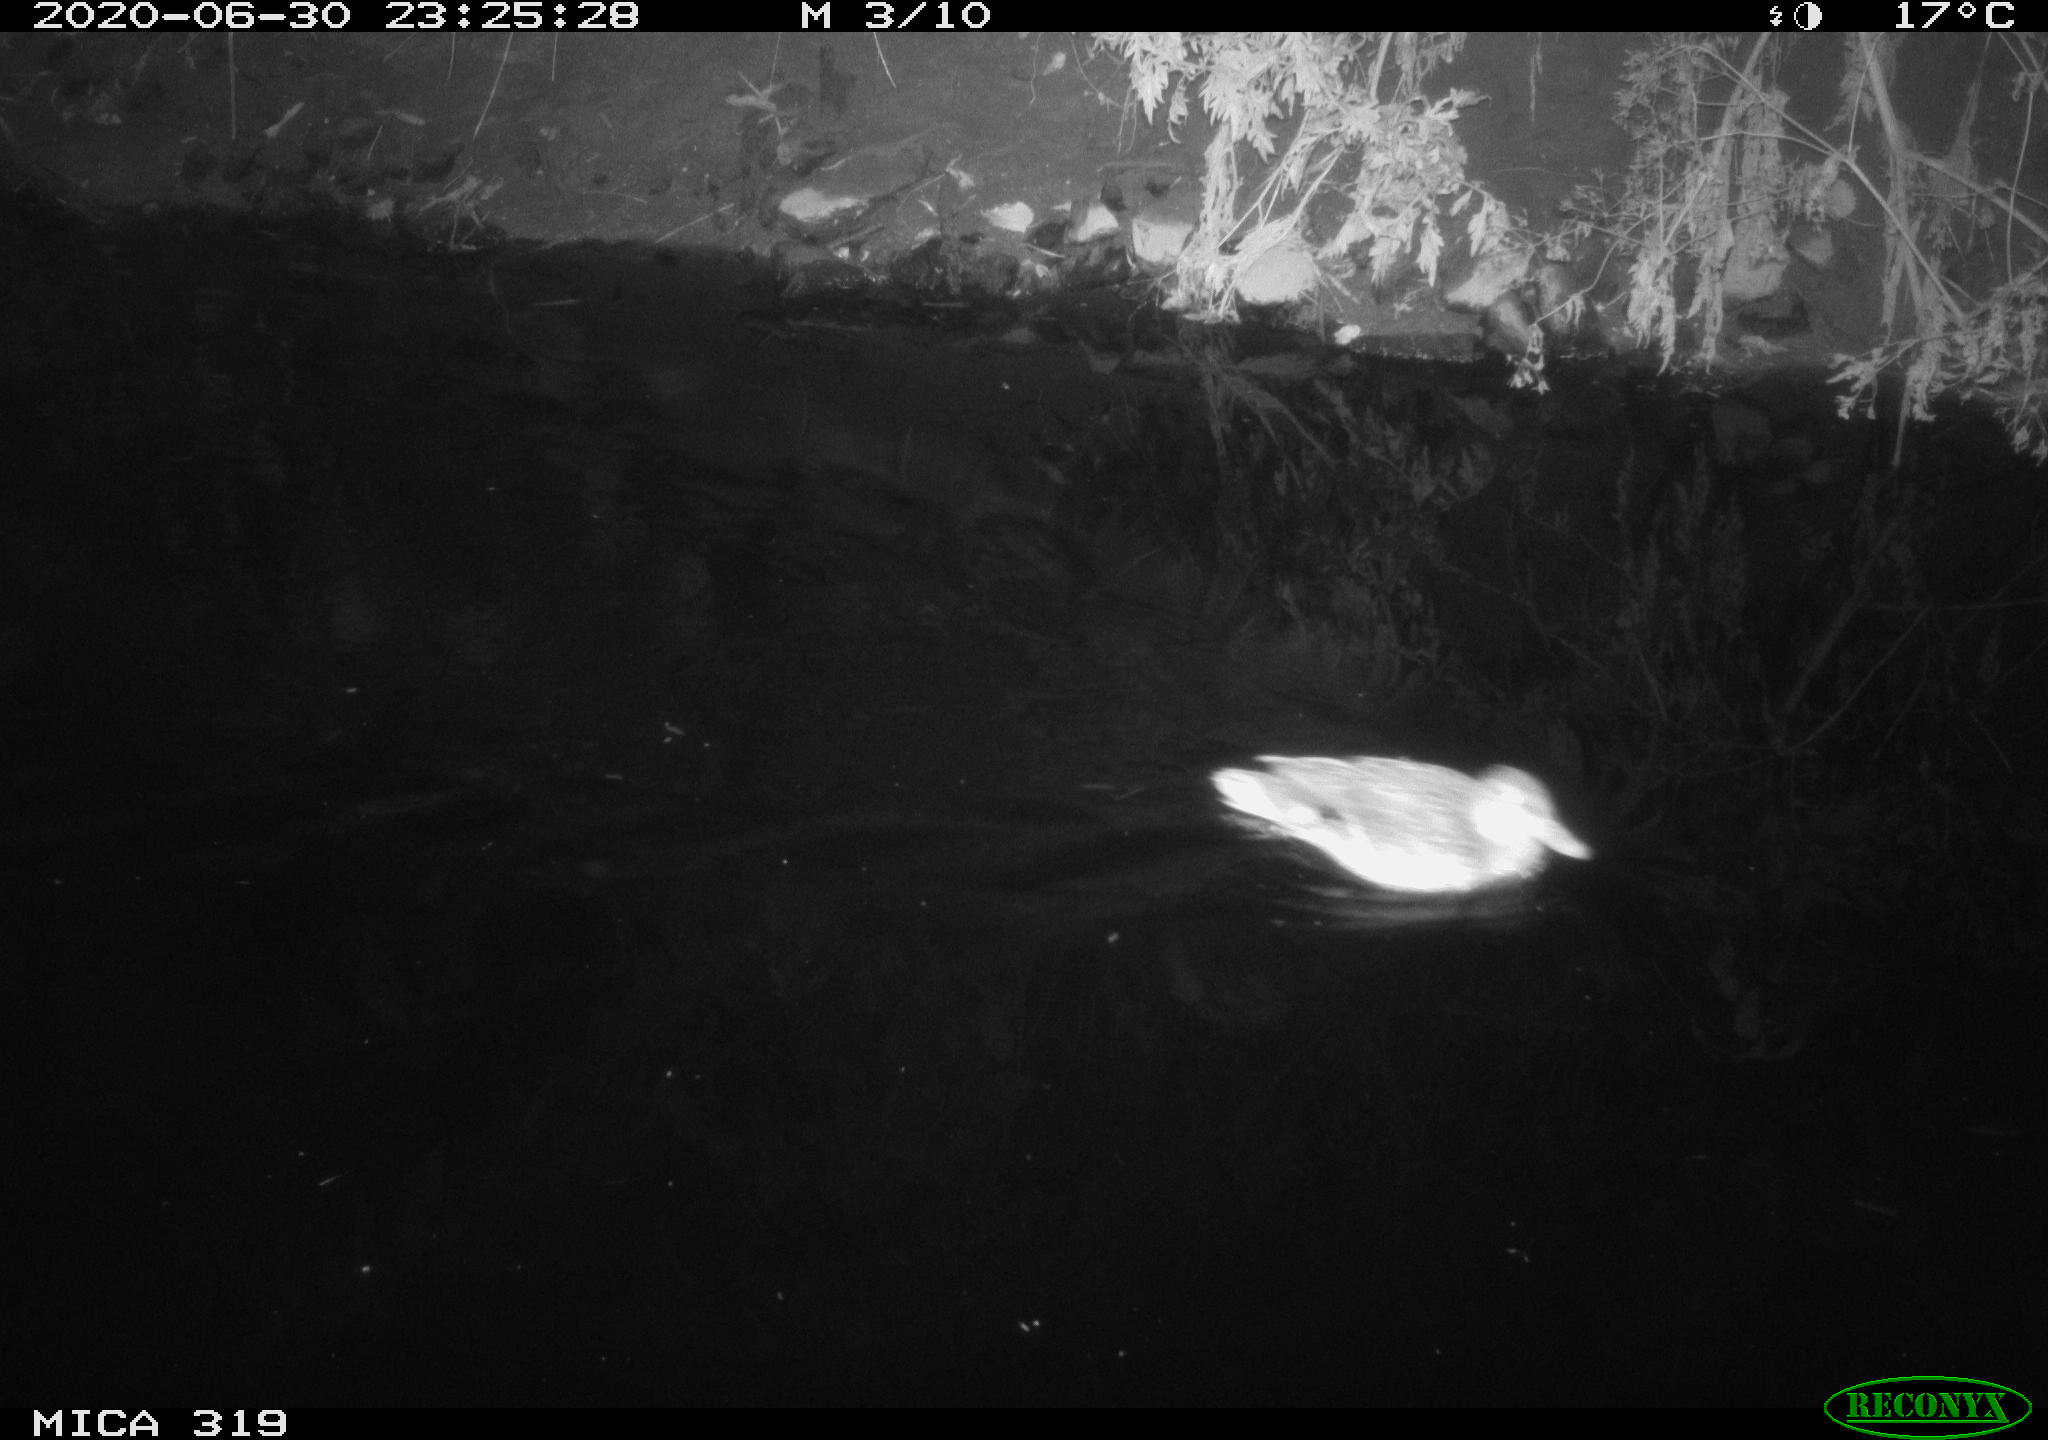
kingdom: Animalia
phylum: Chordata
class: Aves
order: Anseriformes
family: Anatidae
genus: Anas
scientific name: Anas platyrhynchos
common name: Mallard
